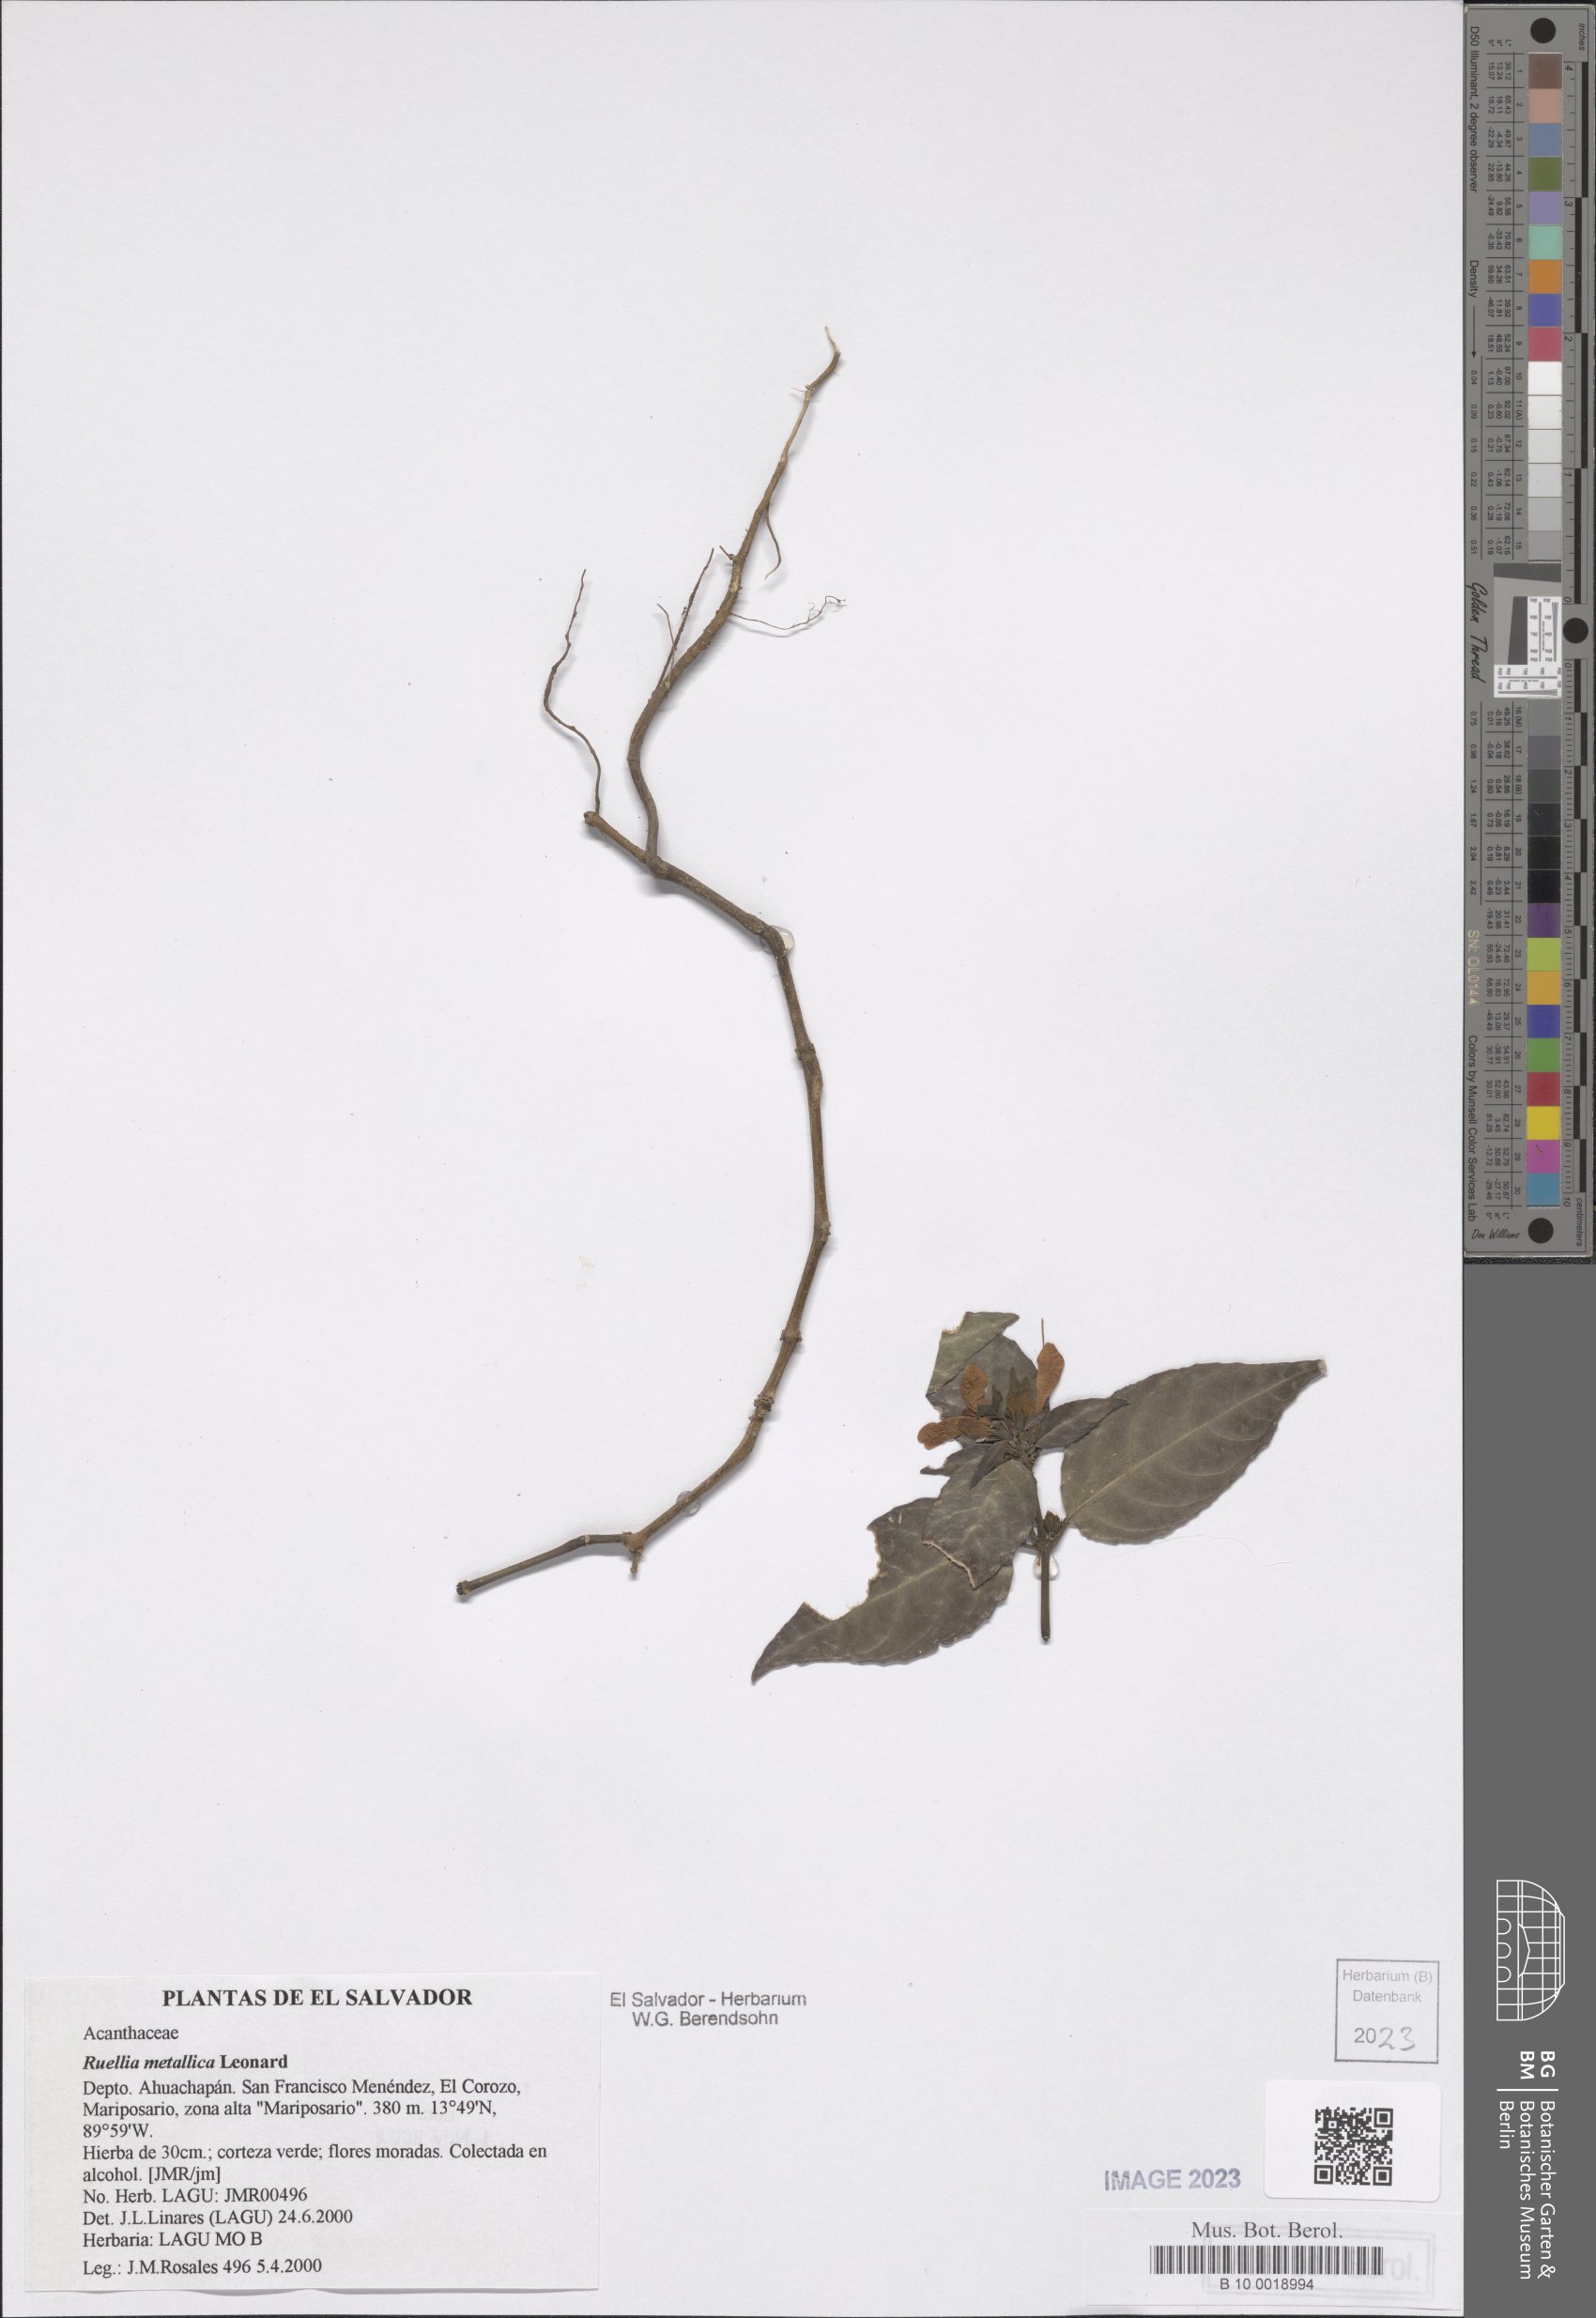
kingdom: Plantae
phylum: Tracheophyta
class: Magnoliopsida
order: Lamiales
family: Acanthaceae
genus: Ruellia
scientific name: Ruellia metallica
